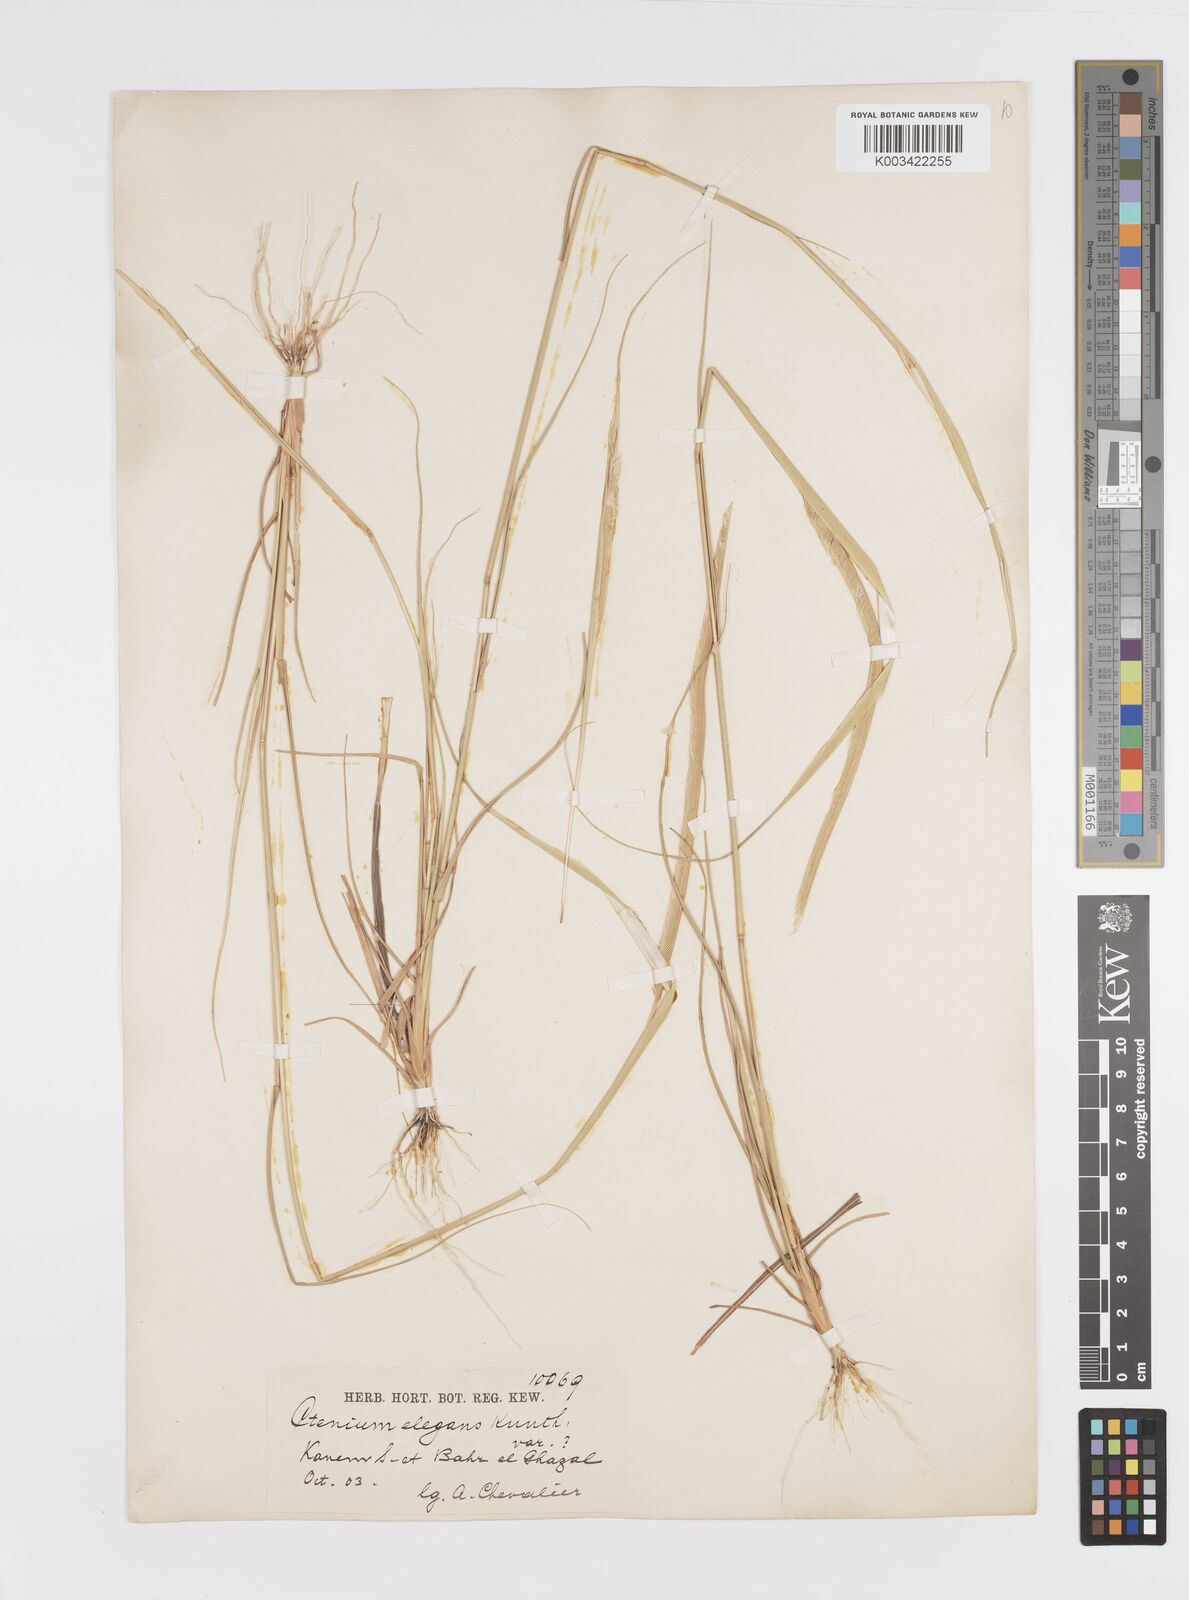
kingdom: Plantae
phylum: Tracheophyta
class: Liliopsida
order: Poales
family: Poaceae
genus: Ctenium
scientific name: Ctenium elegans
